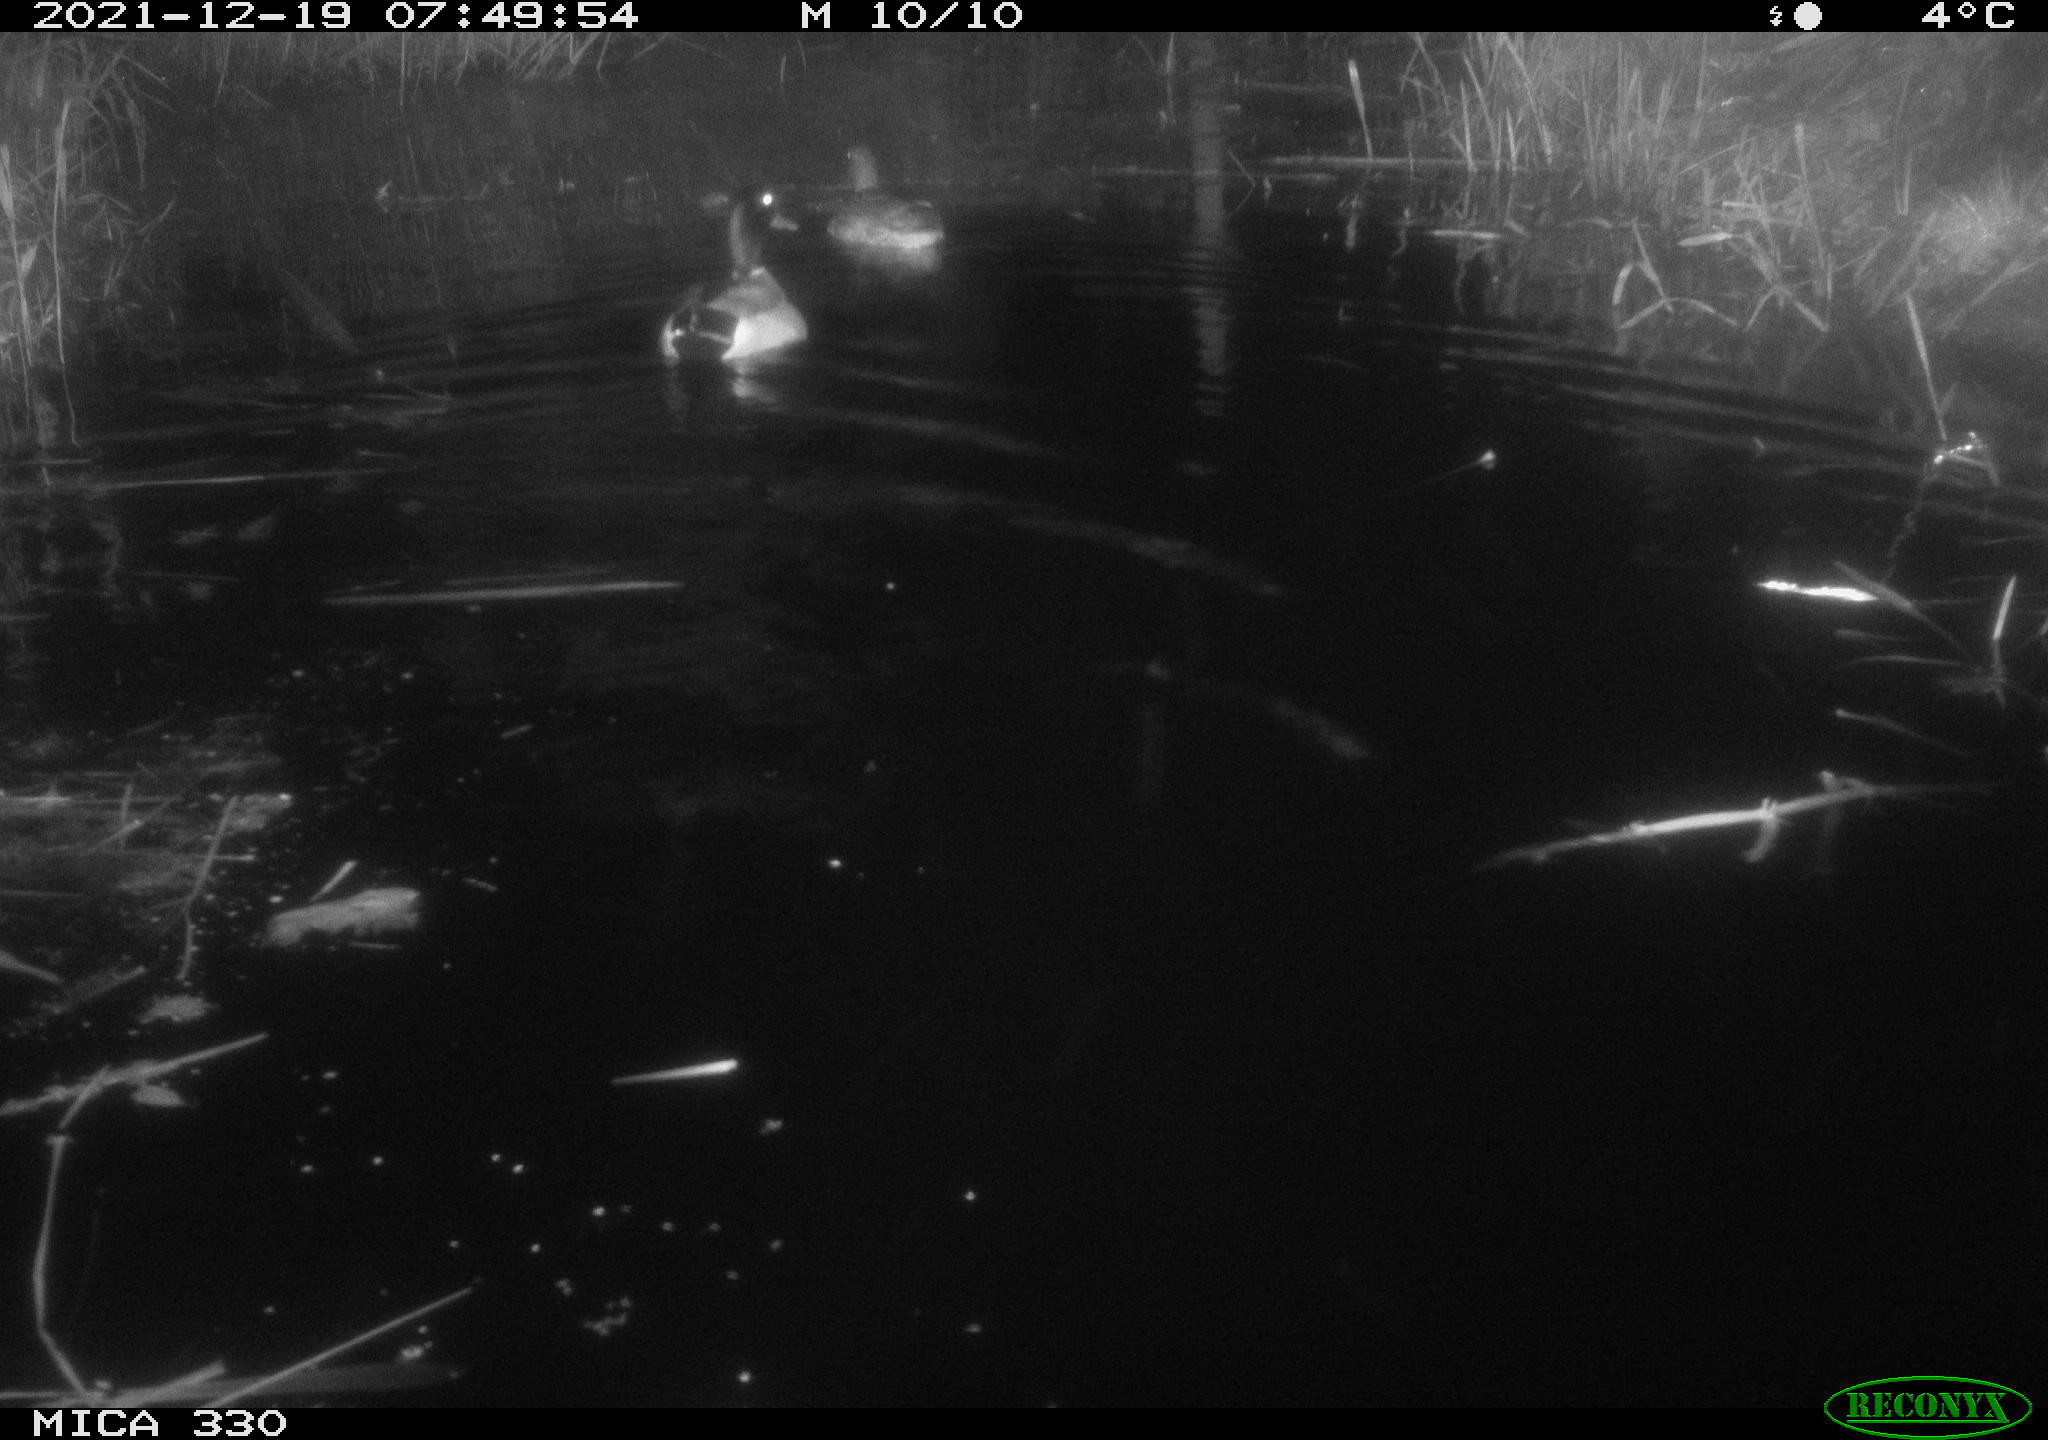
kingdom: Animalia
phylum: Chordata
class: Aves
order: Anseriformes
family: Anatidae
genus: Anas
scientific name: Anas platyrhynchos
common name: Mallard
